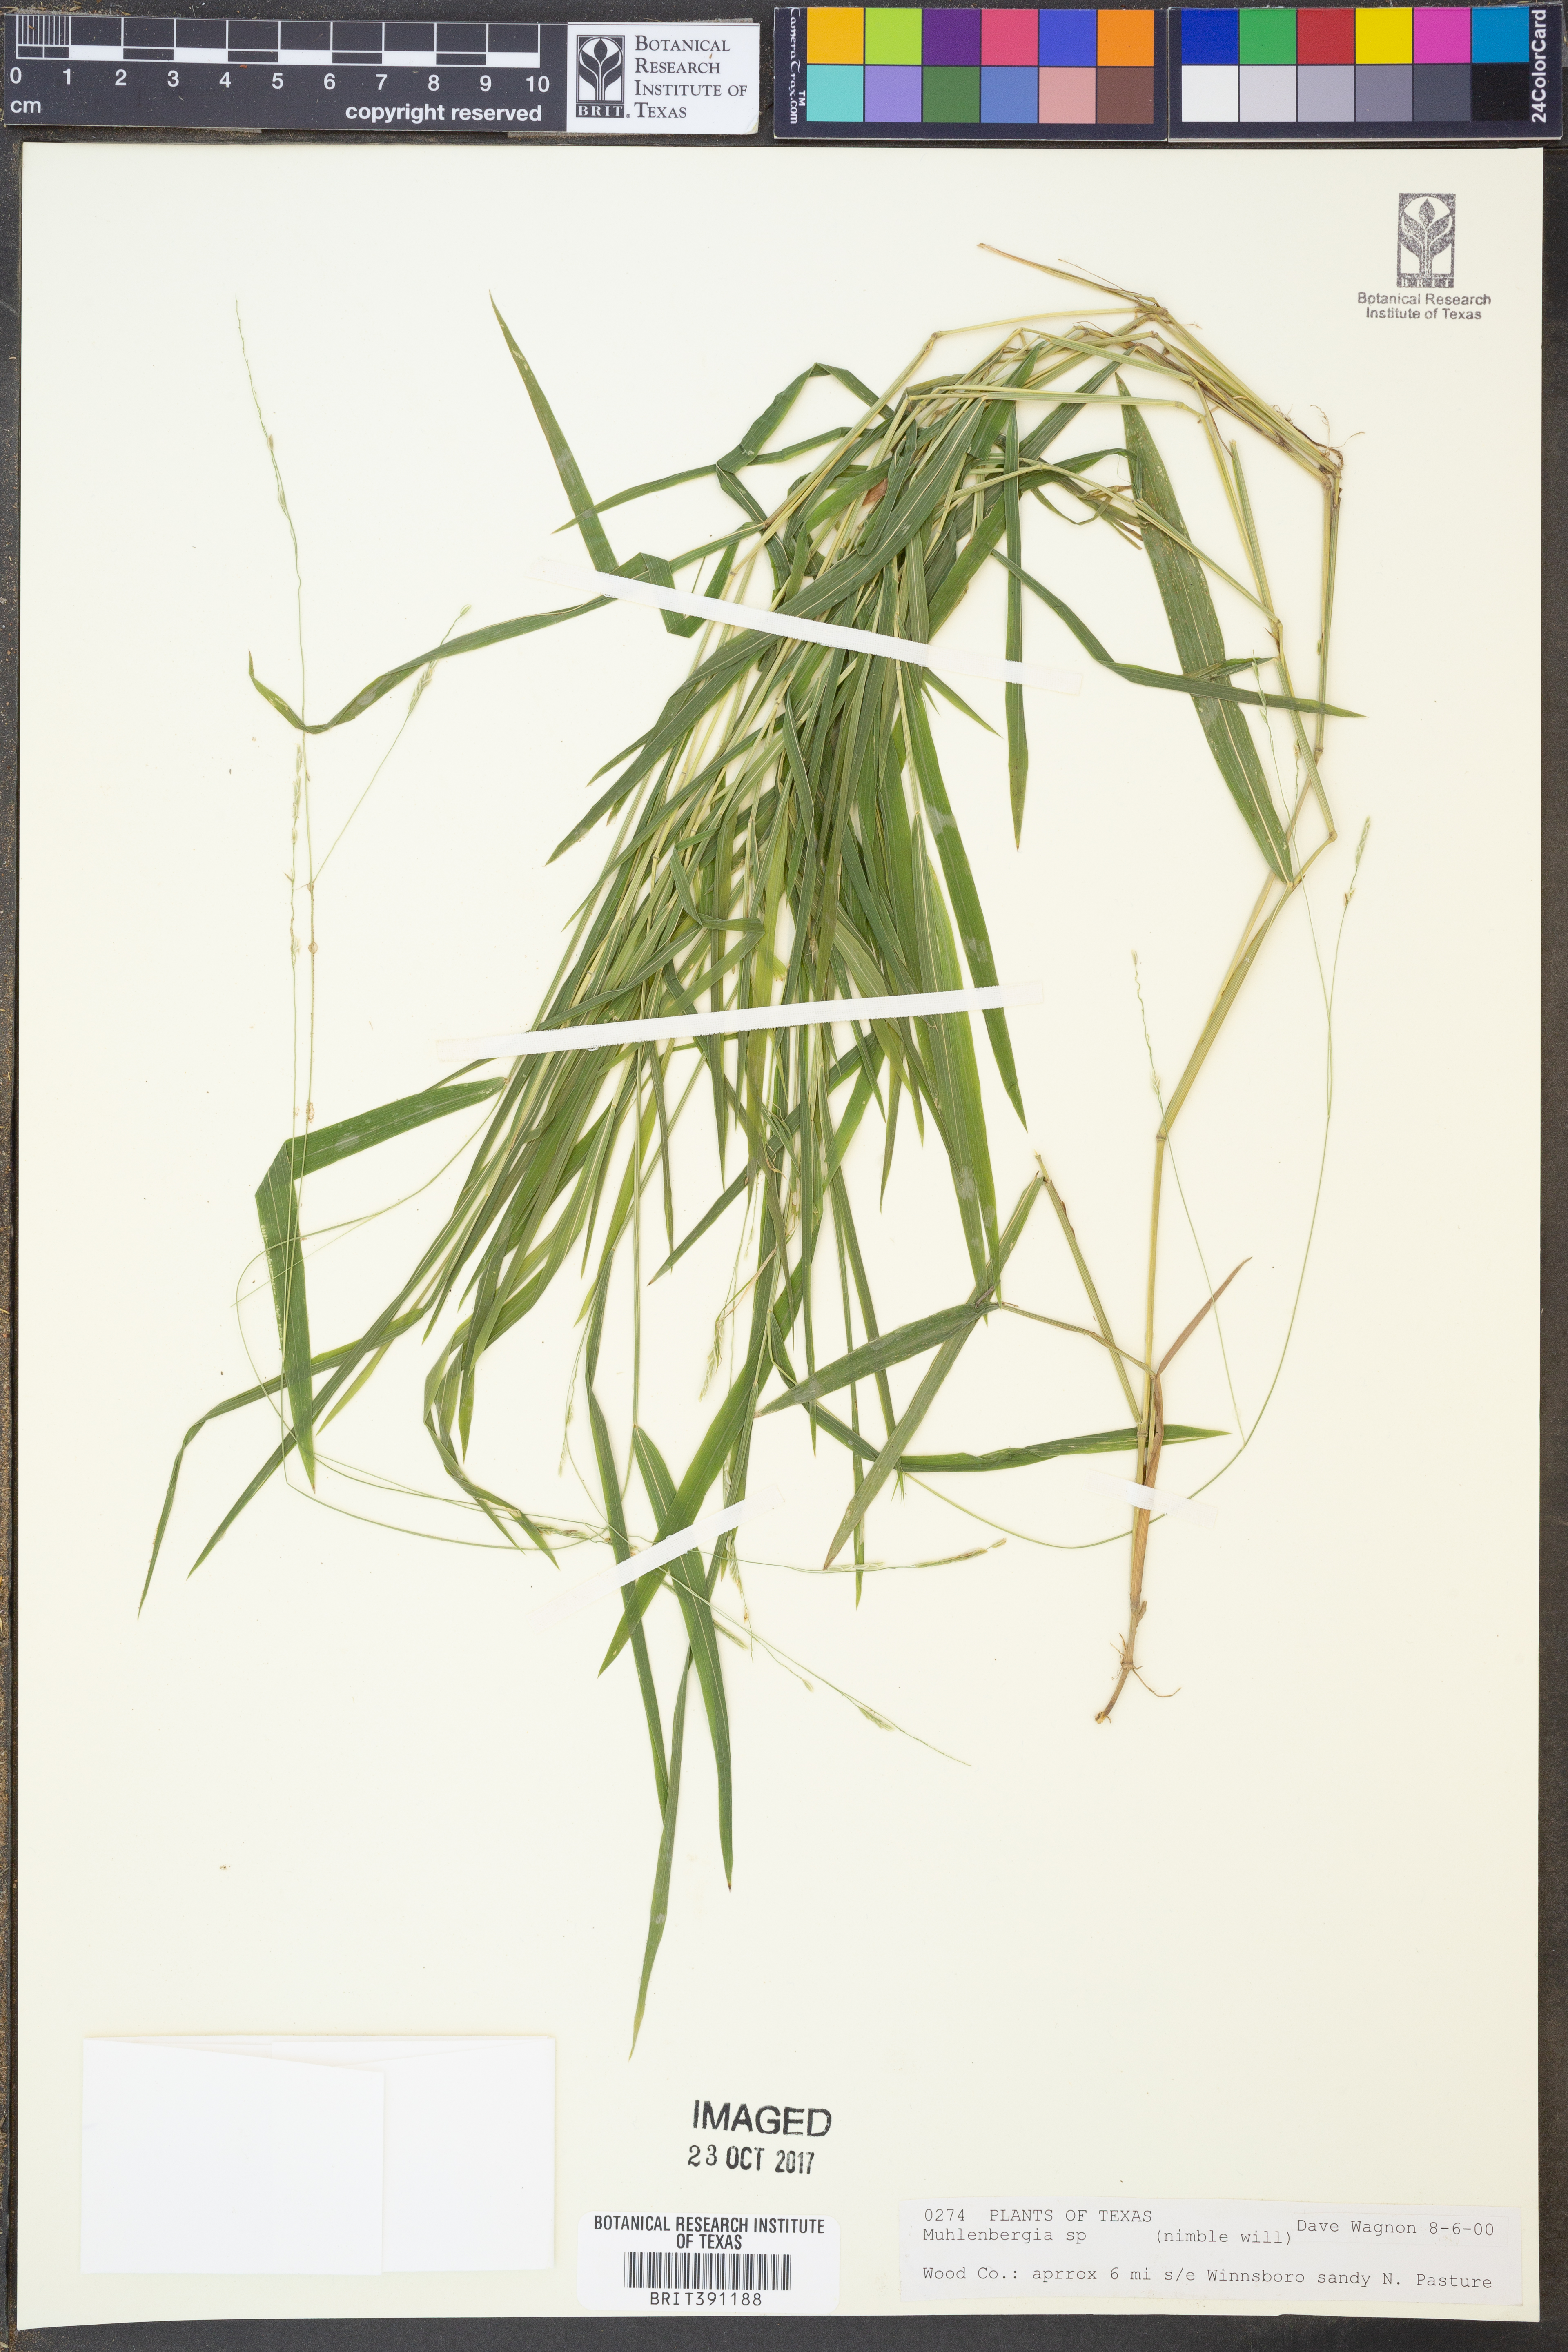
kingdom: Plantae
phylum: Tracheophyta
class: Liliopsida
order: Poales
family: Poaceae
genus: Muhlenbergia
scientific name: Muhlenbergia
